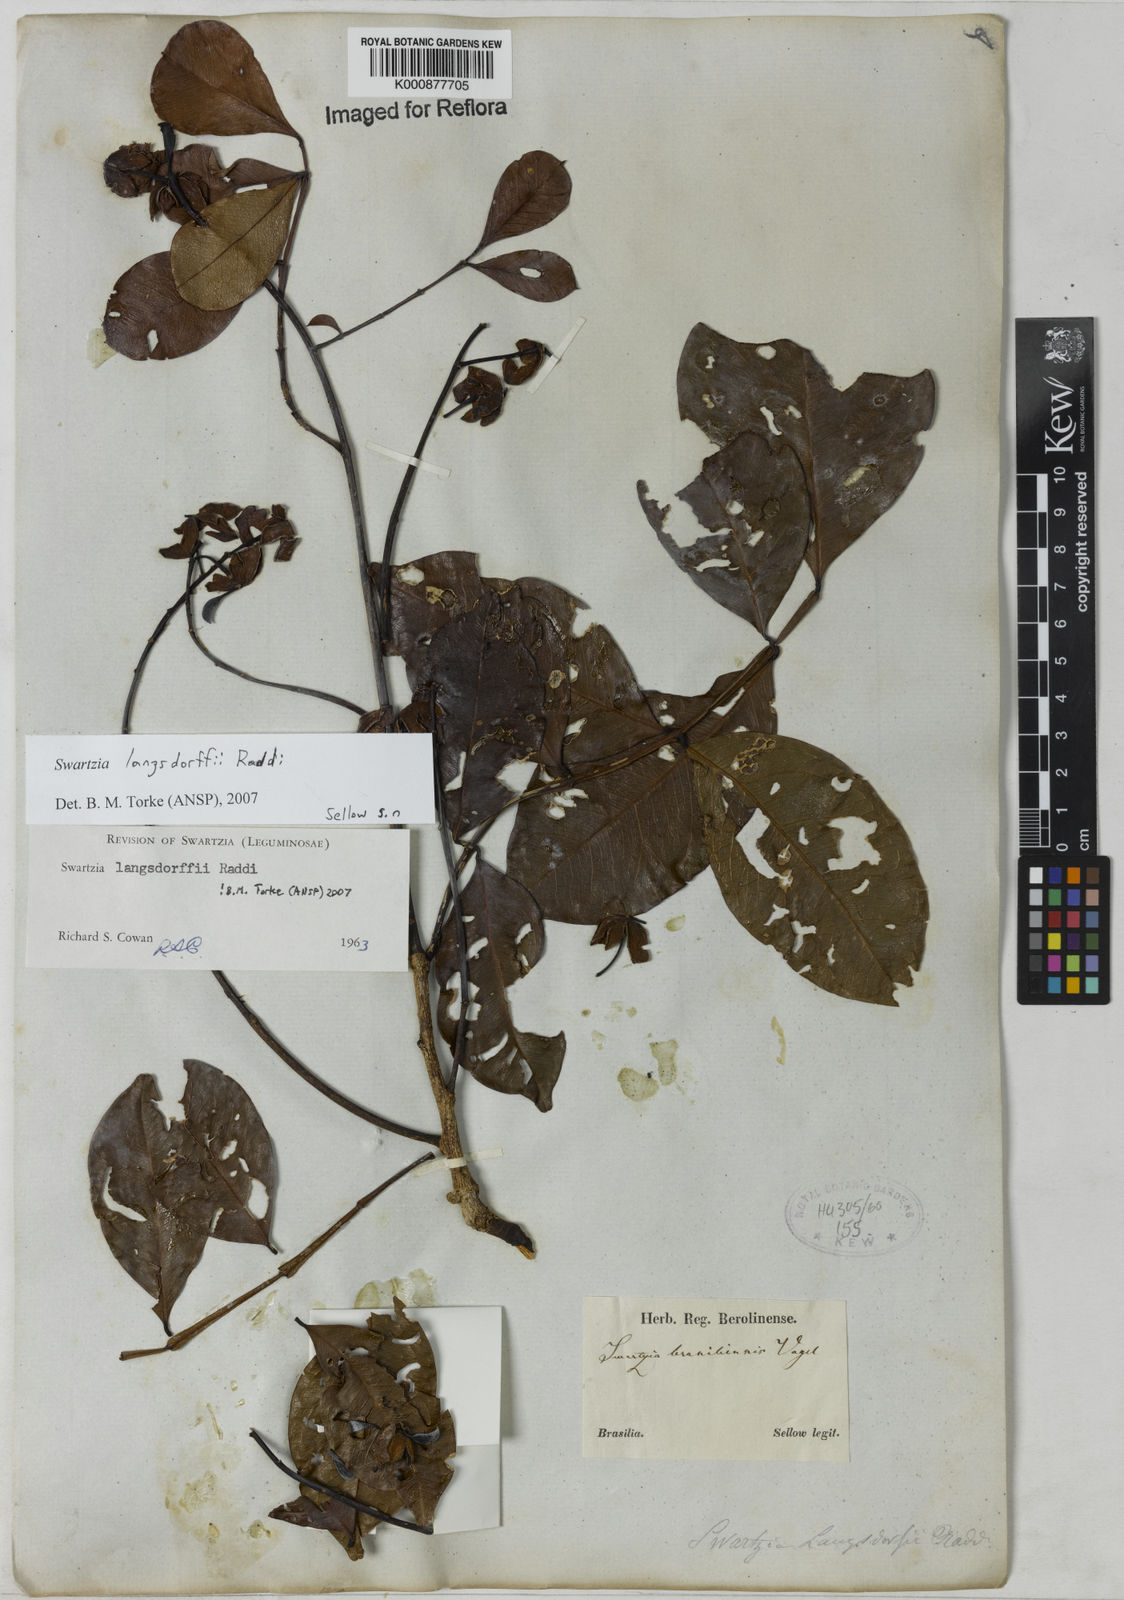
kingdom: Plantae
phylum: Tracheophyta
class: Magnoliopsida
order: Fabales
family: Fabaceae
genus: Swartzia
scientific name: Swartzia langsdorffii
